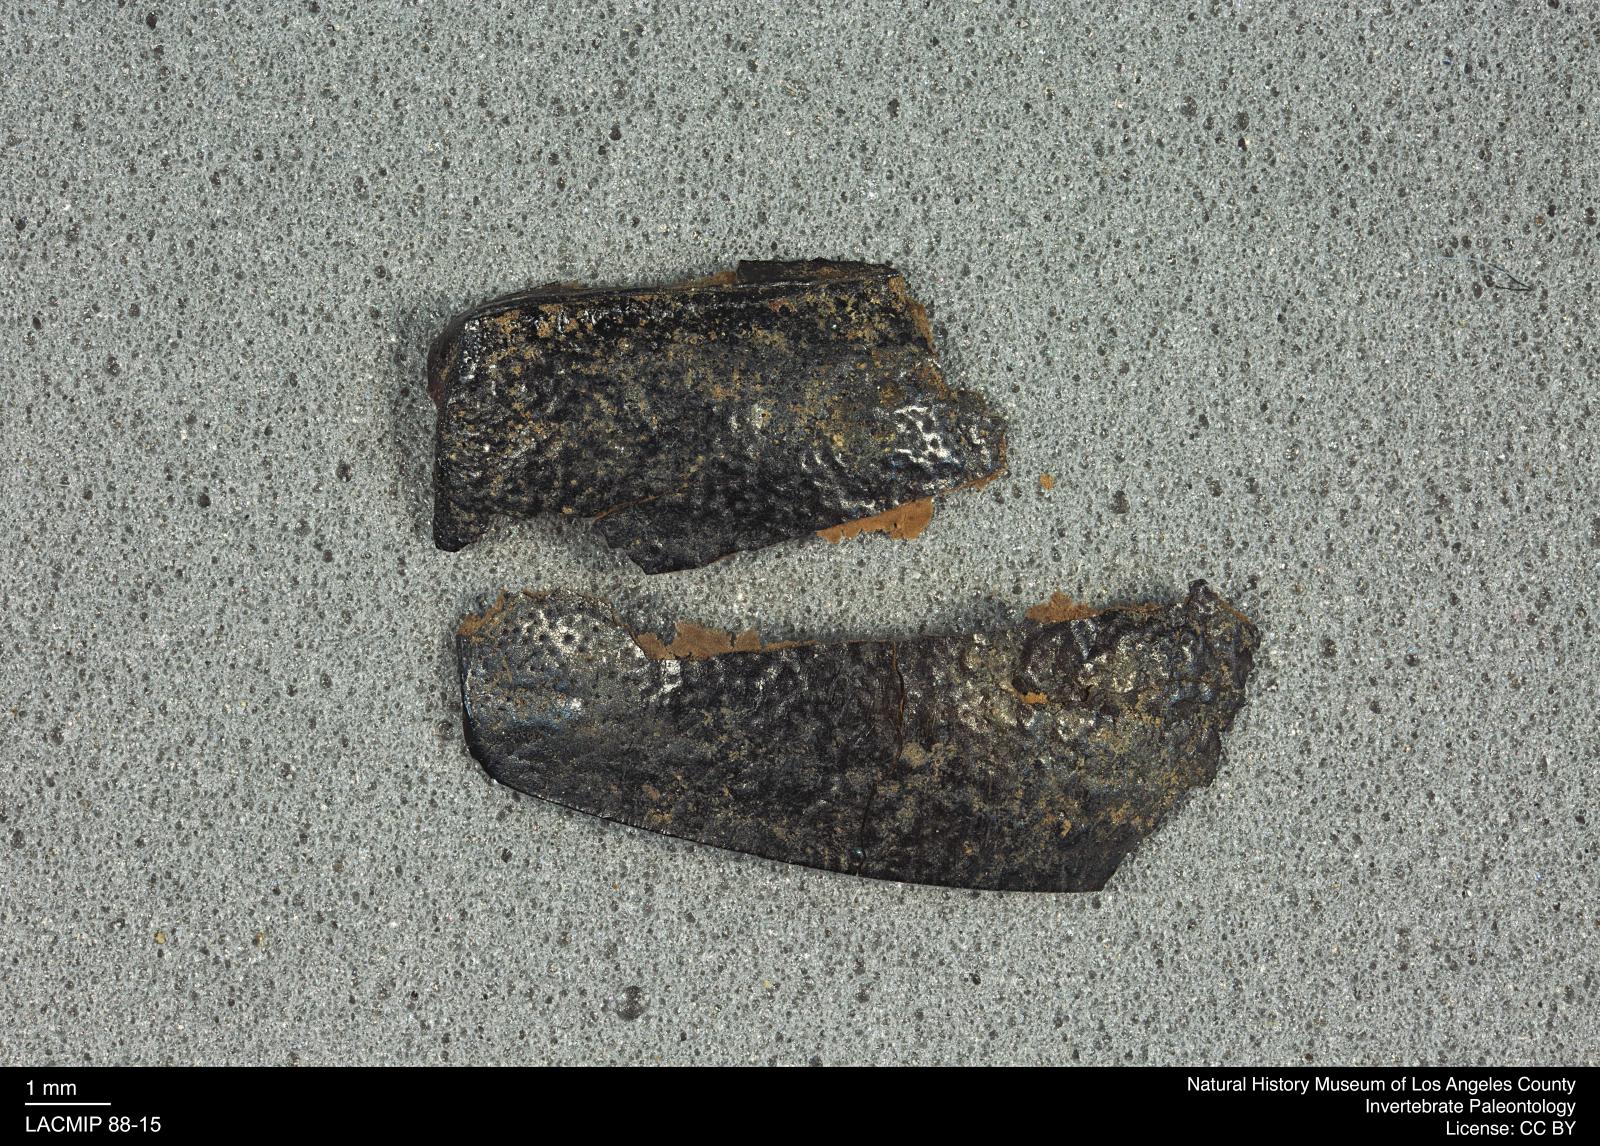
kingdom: Animalia
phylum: Arthropoda
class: Insecta
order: Coleoptera
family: Tenebrionidae
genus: Coniontis
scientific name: Coniontis abdominalis
